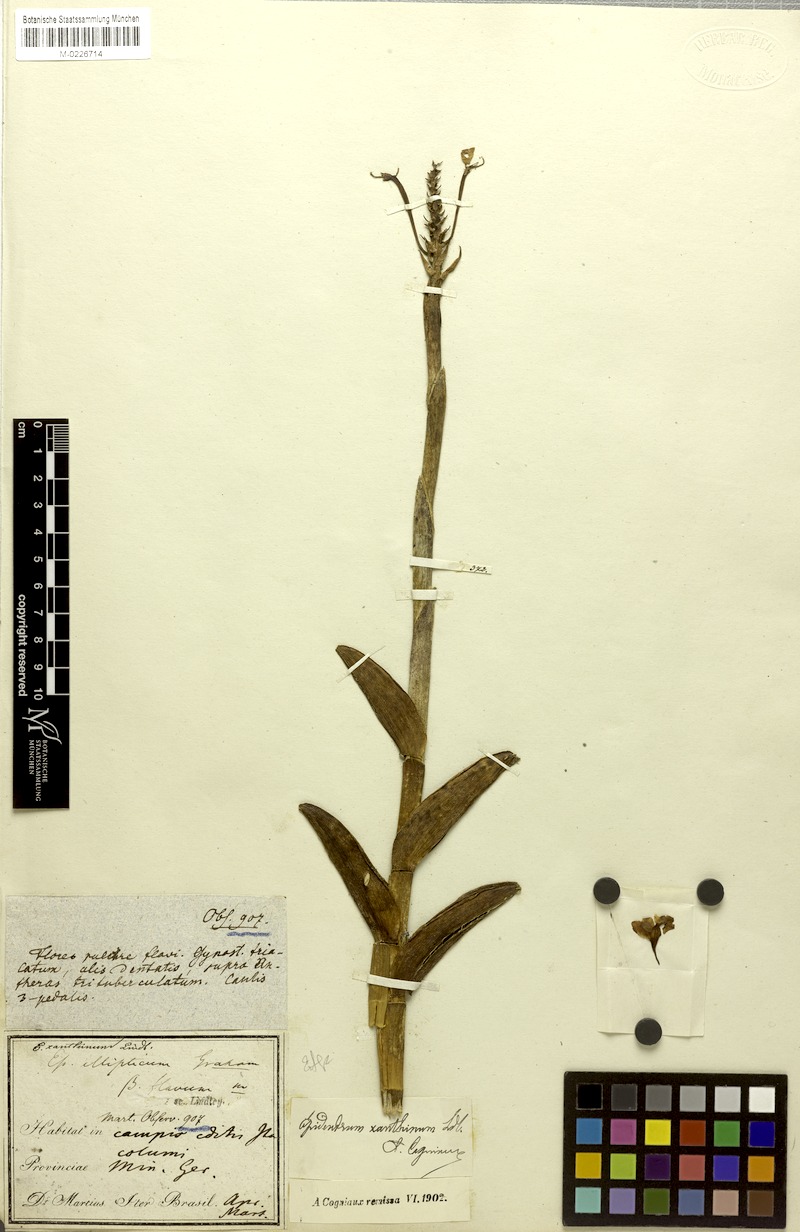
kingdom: Plantae
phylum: Tracheophyta
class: Liliopsida
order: Asparagales
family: Orchidaceae
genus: Epidendrum
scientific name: Epidendrum ellipticum
